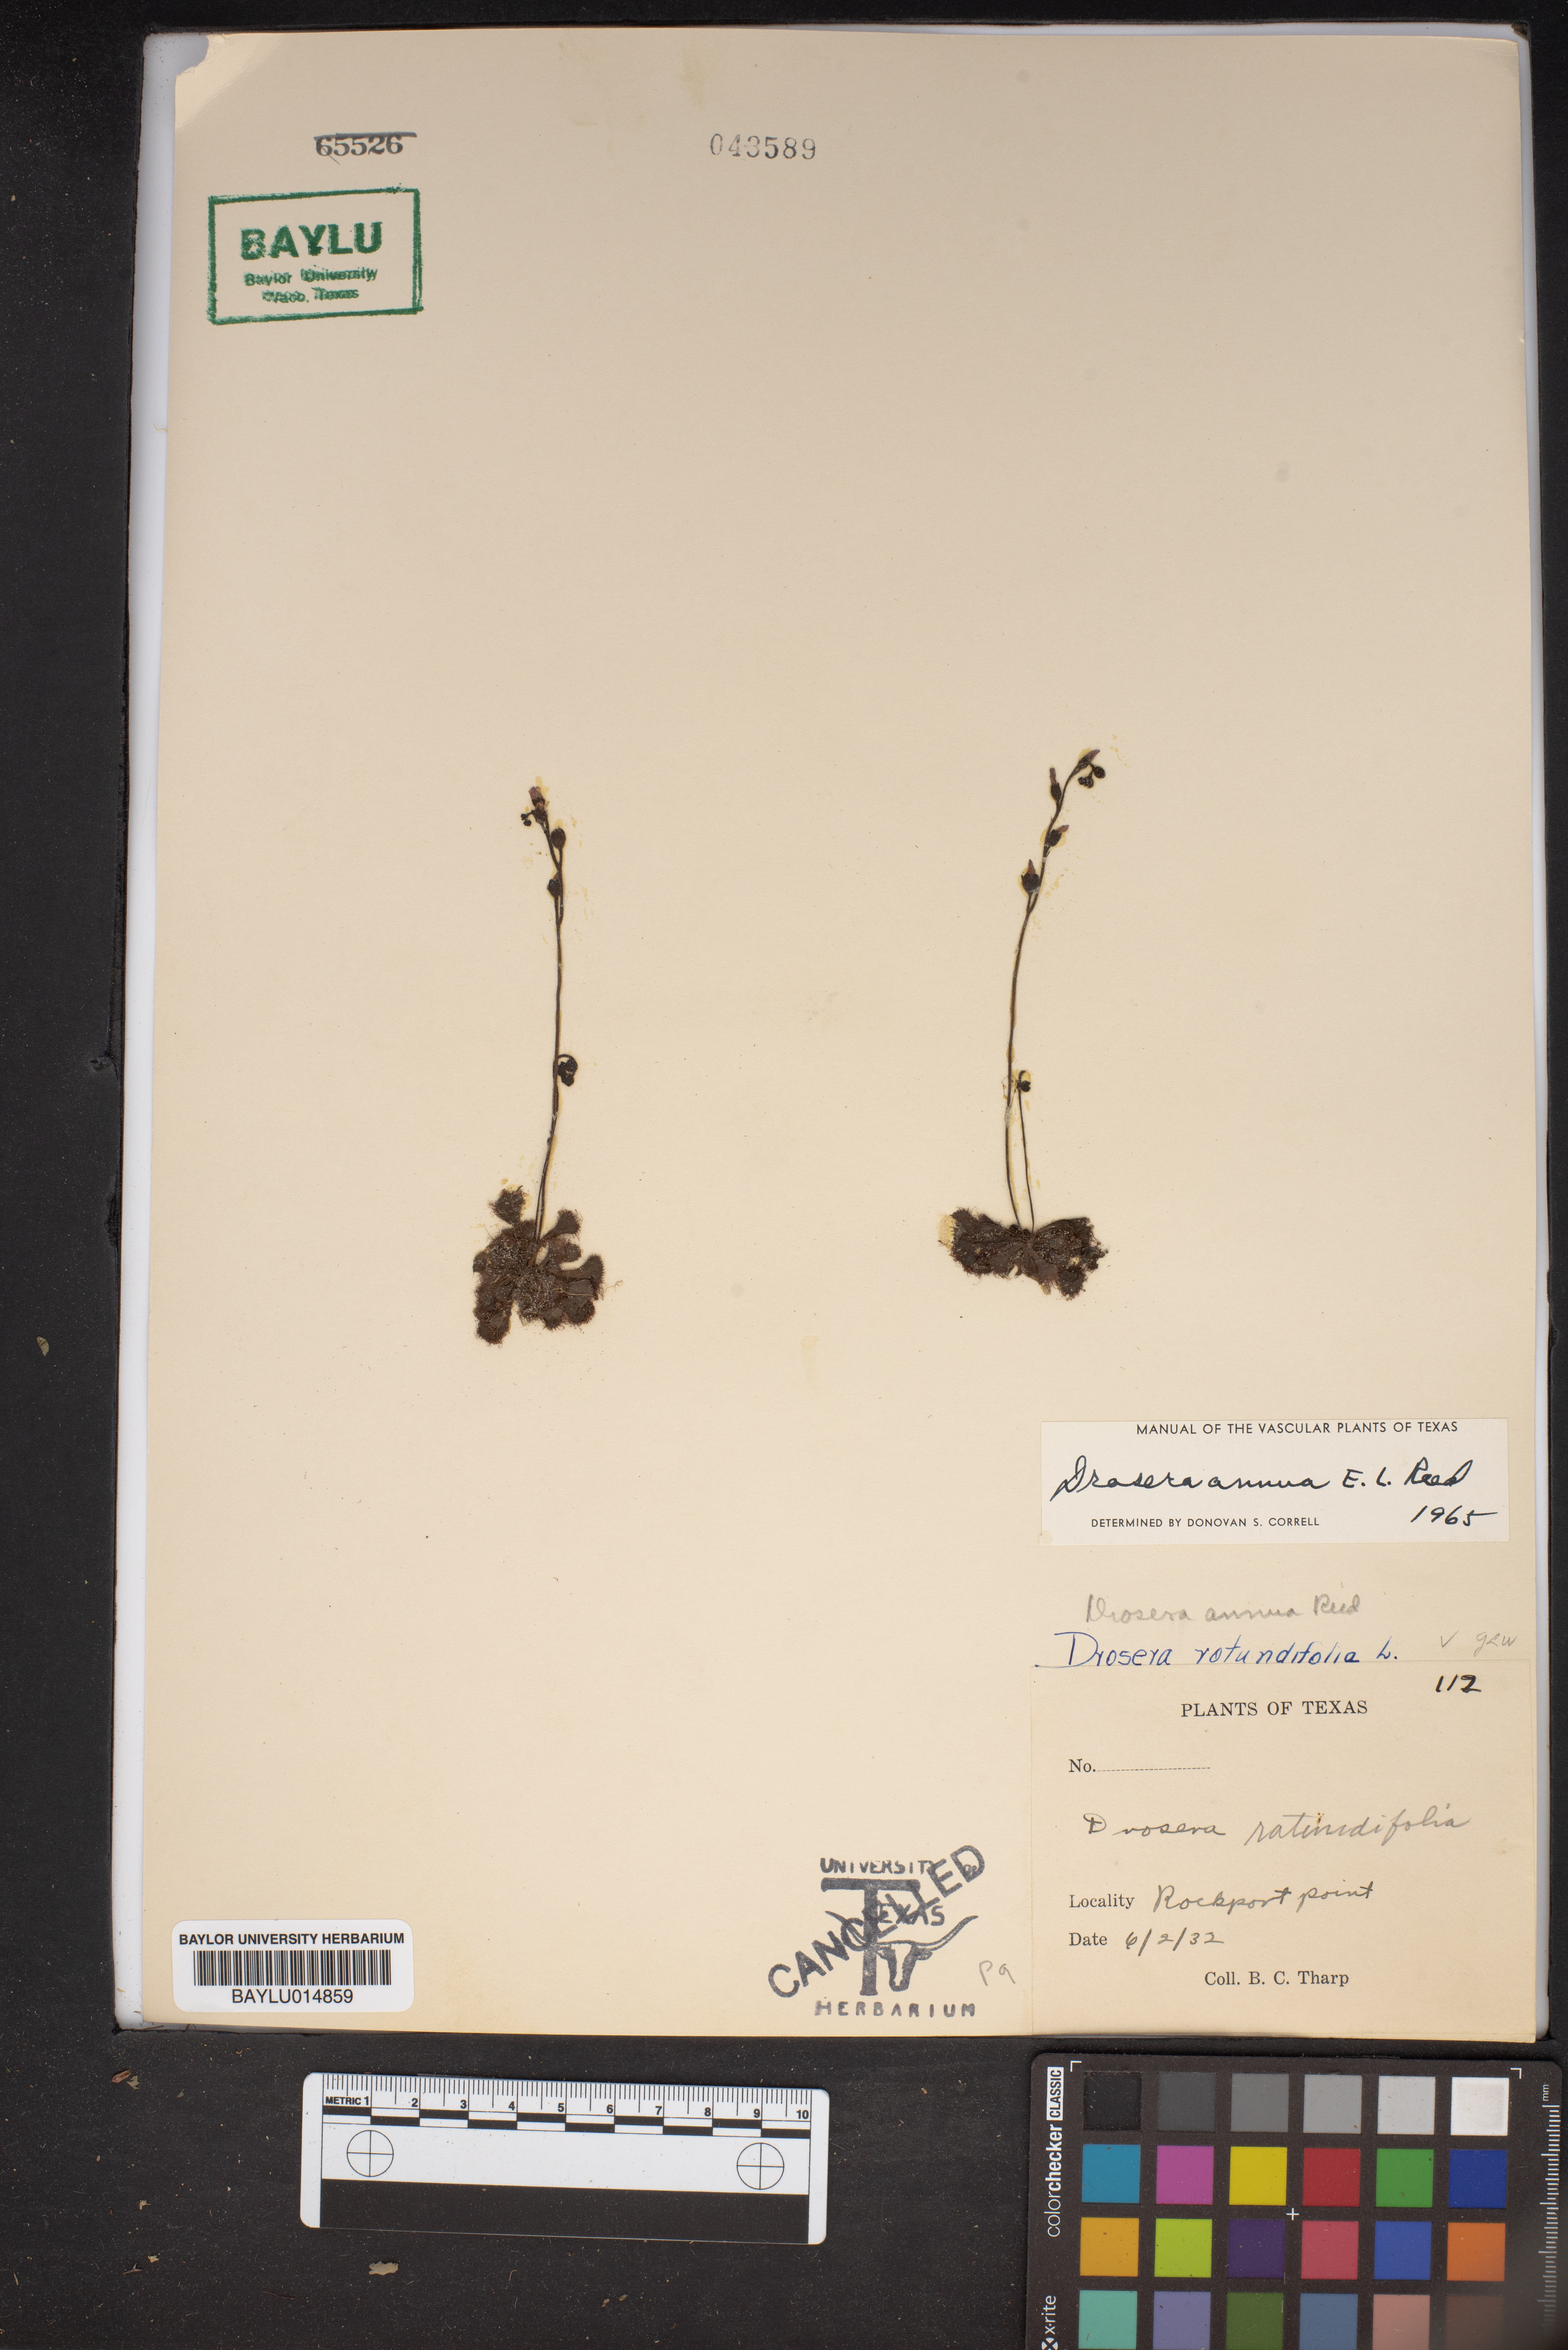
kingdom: Plantae
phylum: Tracheophyta
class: Magnoliopsida
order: Caryophyllales
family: Droseraceae
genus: Drosera
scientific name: Drosera brevifolia
